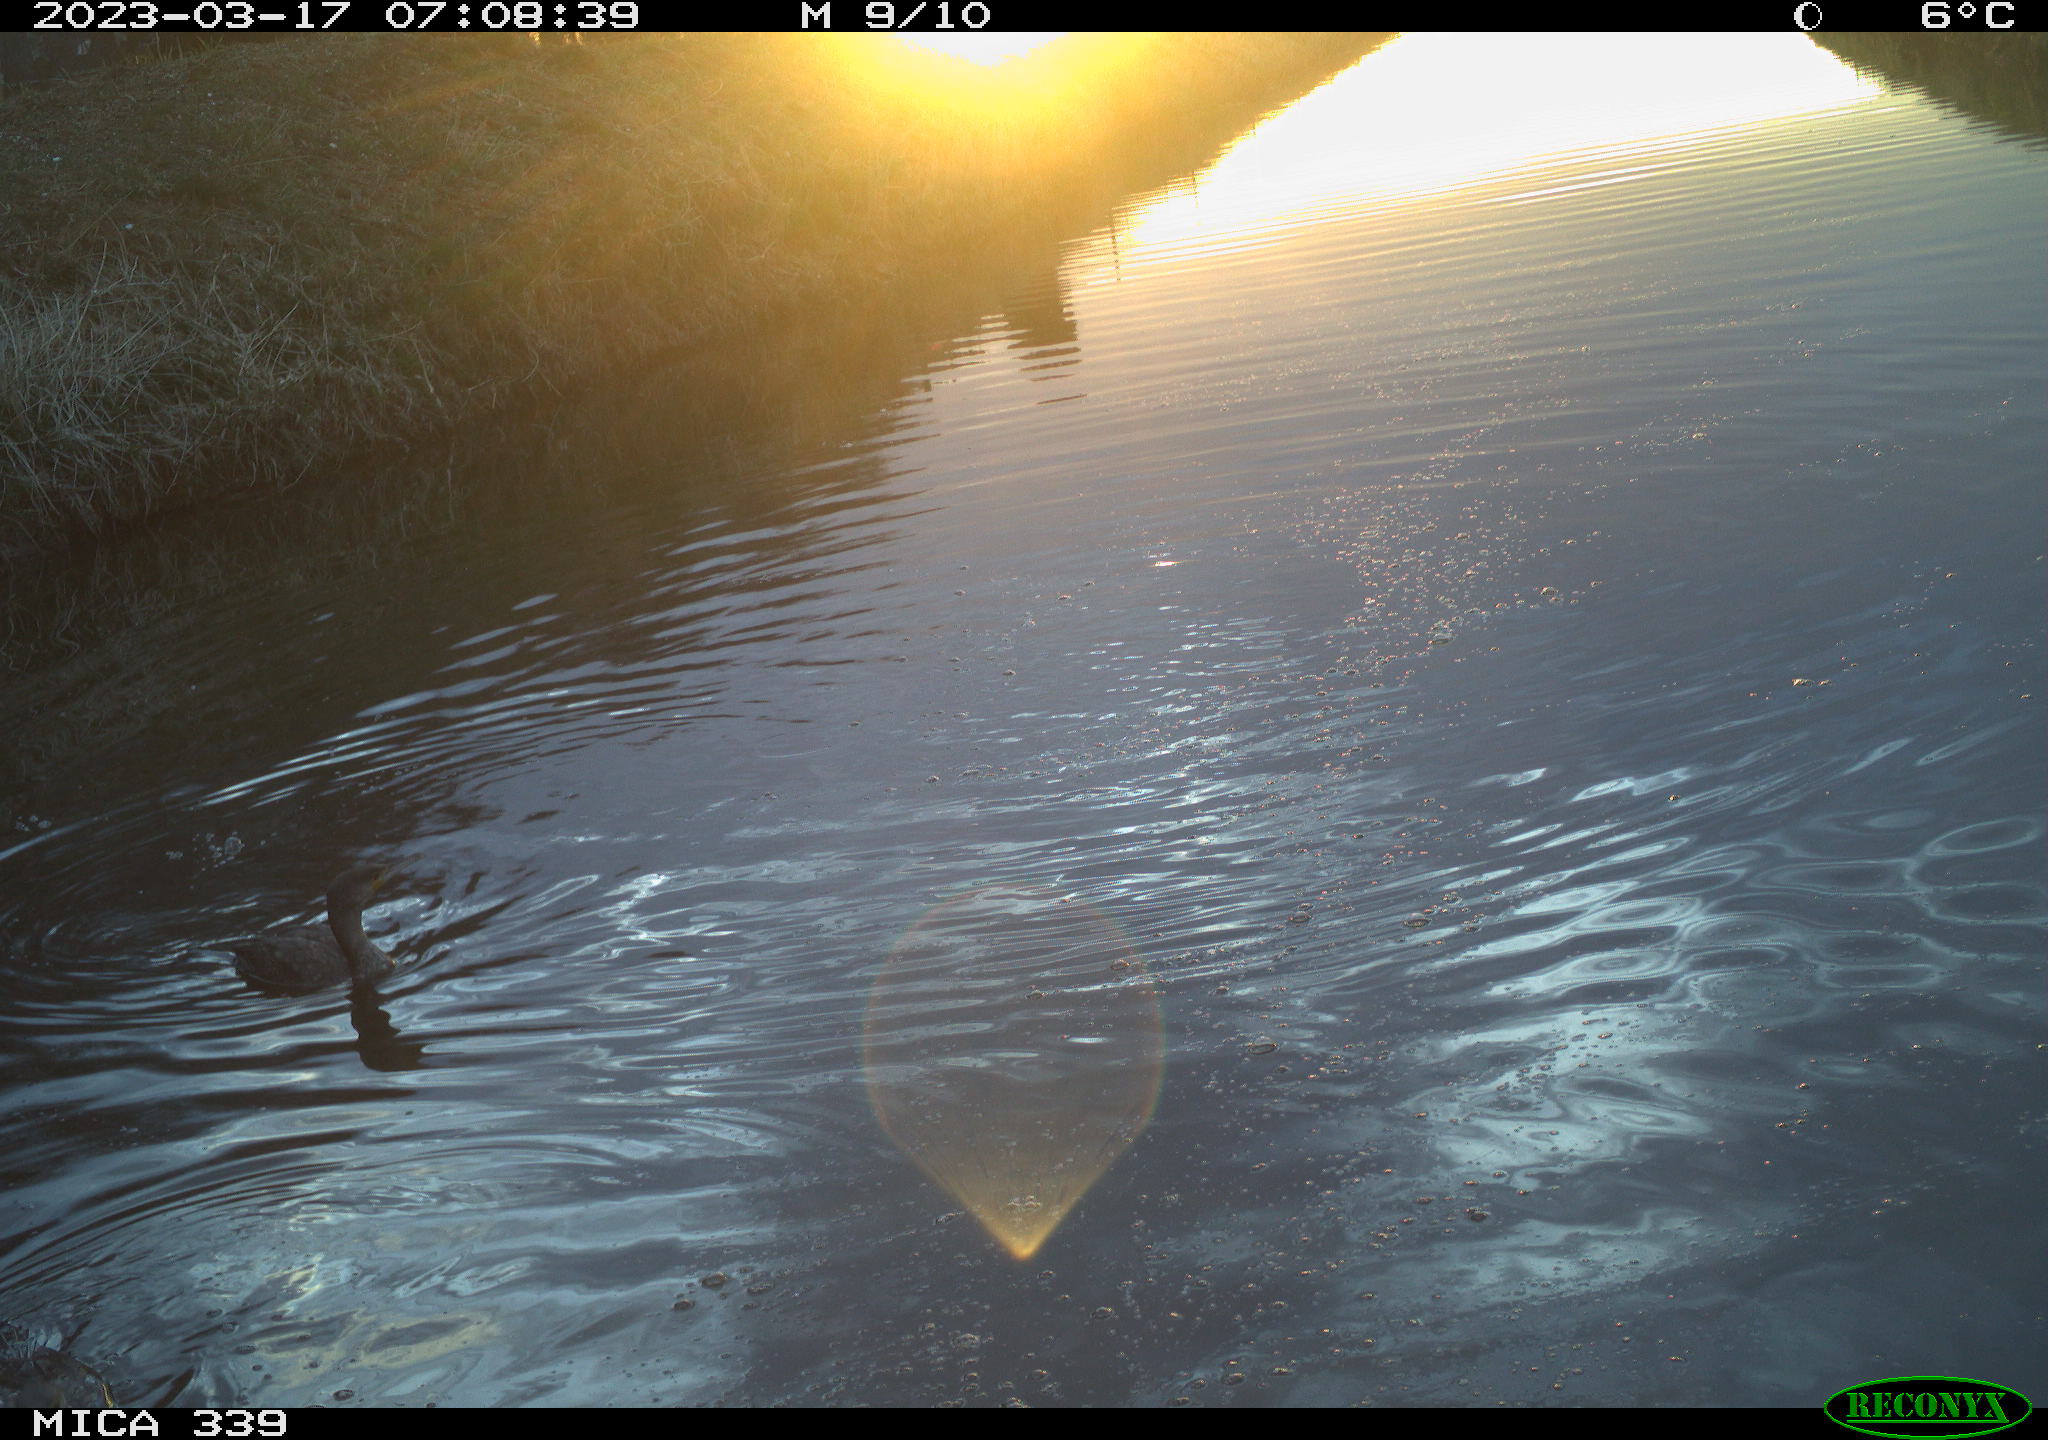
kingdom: Animalia
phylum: Chordata
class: Aves
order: Anseriformes
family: Anatidae
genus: Anas
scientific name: Anas
